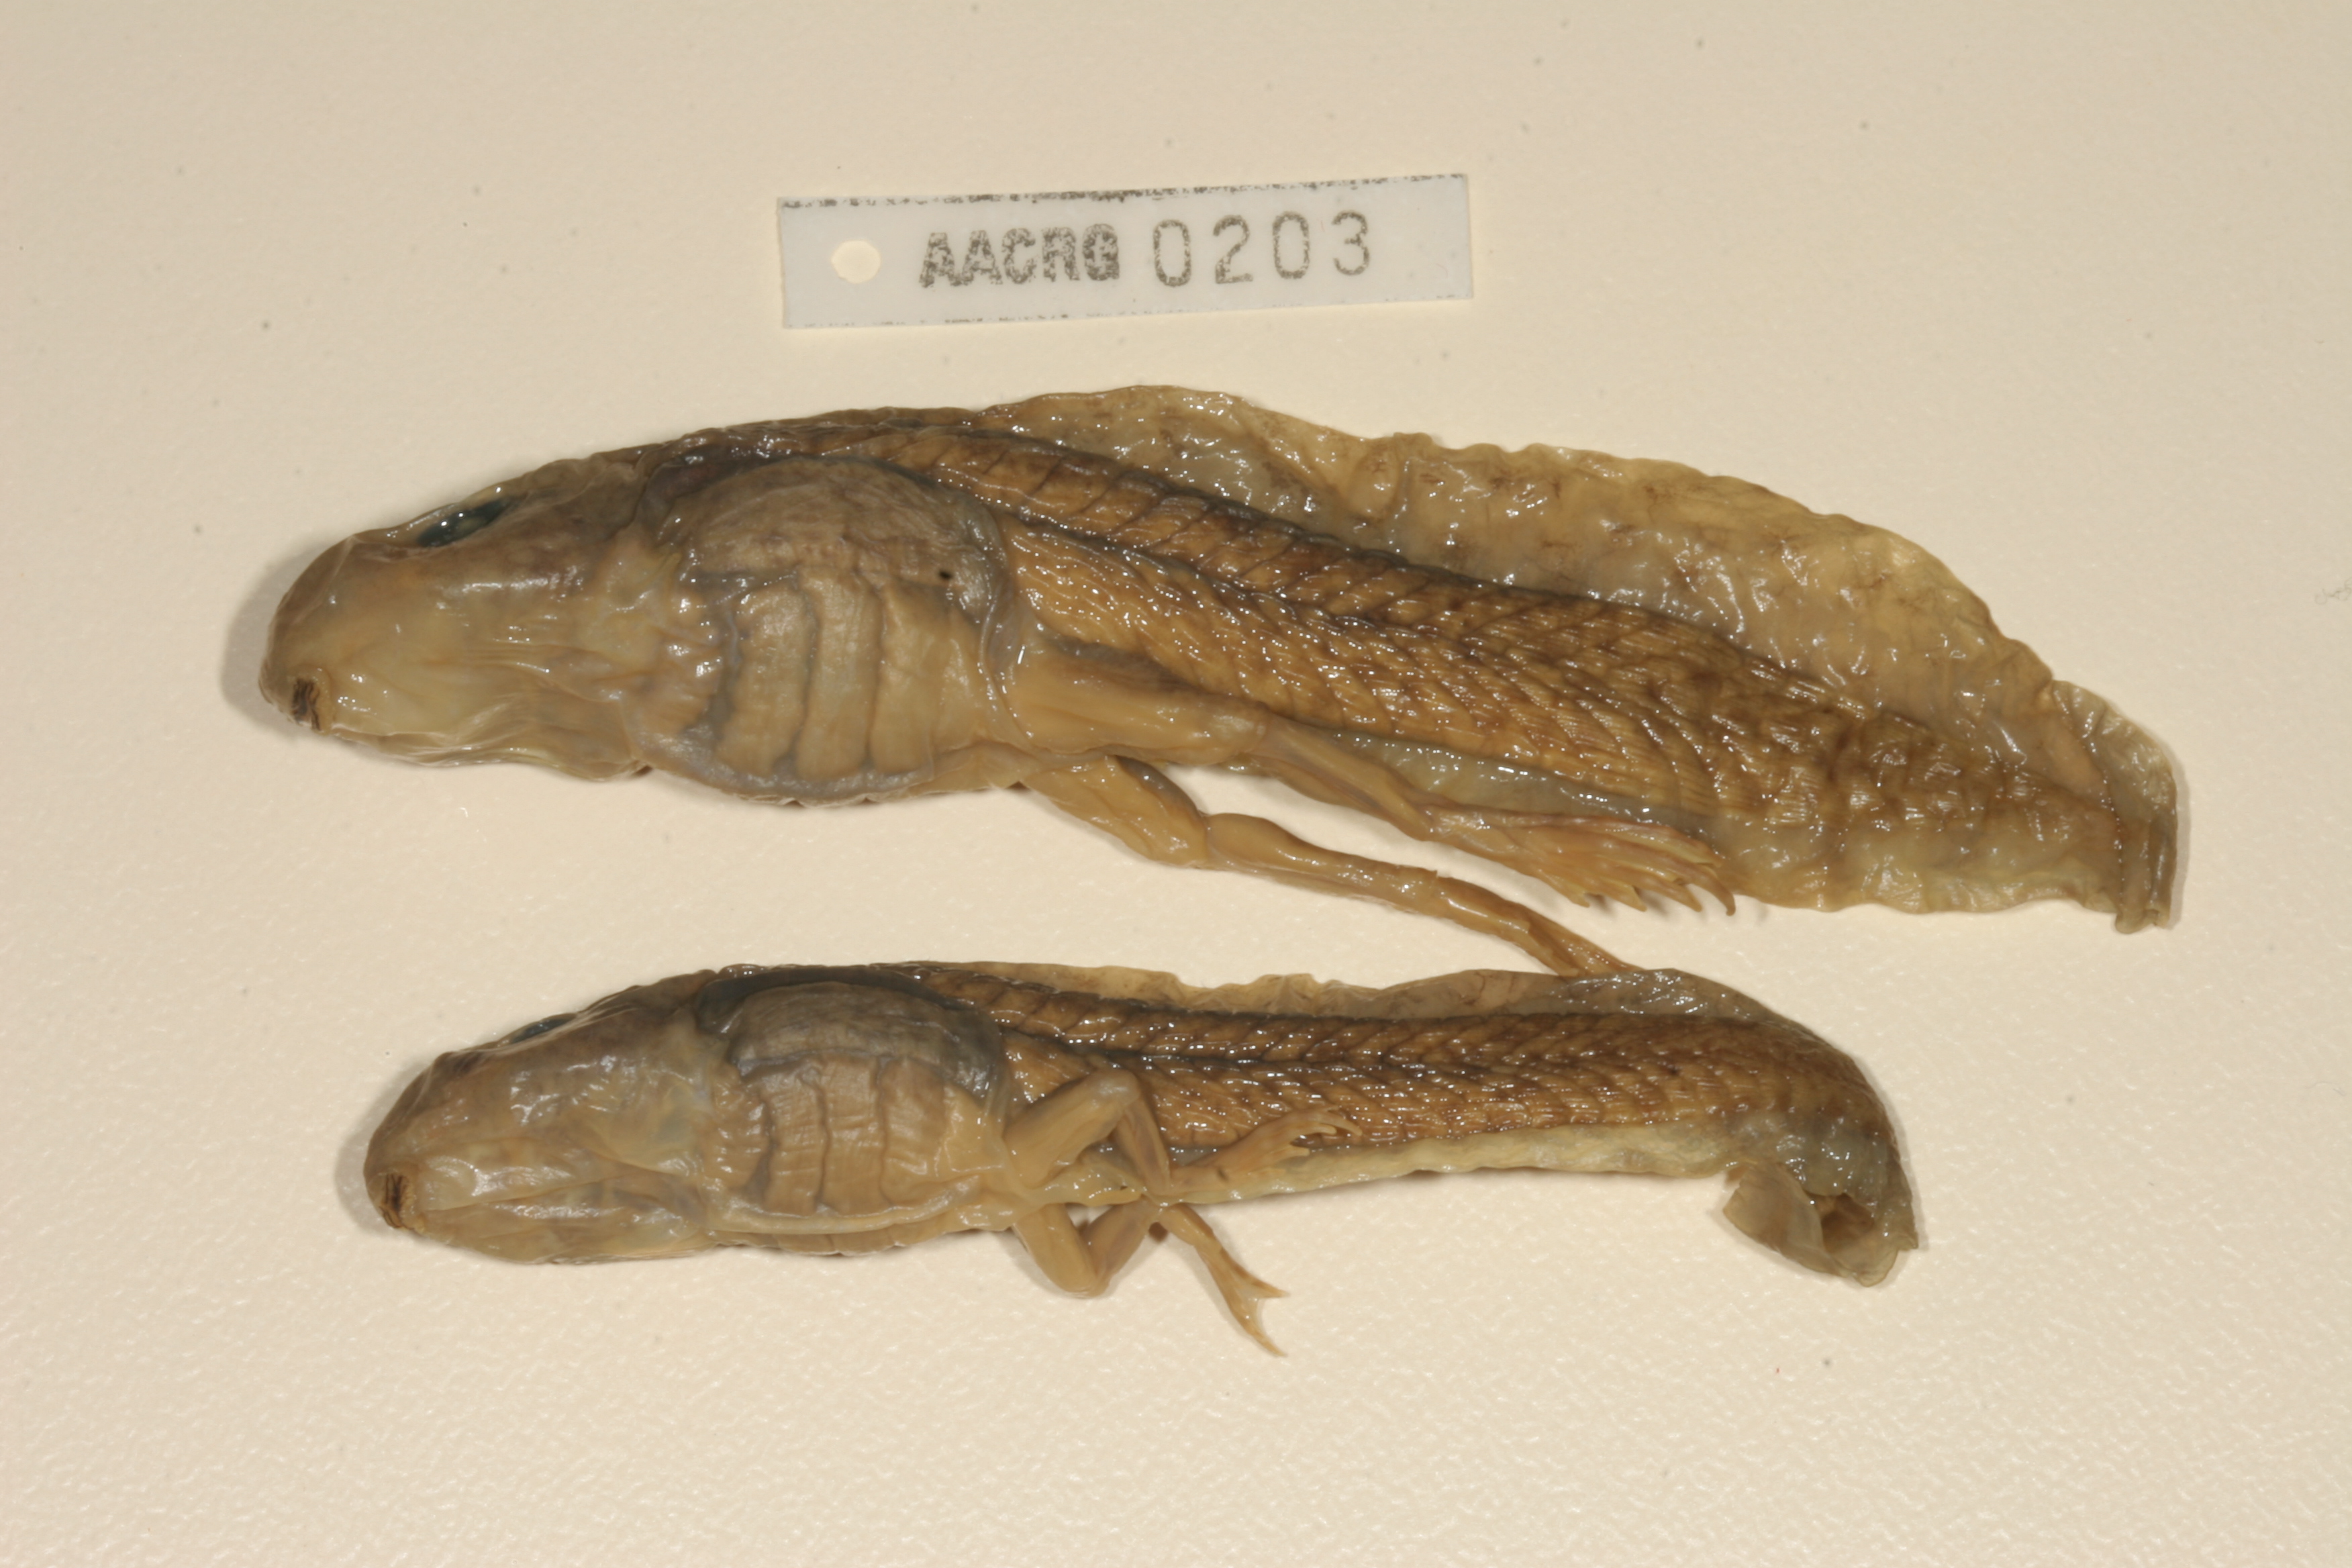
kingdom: Animalia
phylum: Chordata
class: Amphibia
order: Anura
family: Pyxicephalidae
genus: Amietia
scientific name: Amietia fuscigula
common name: Cape rana
